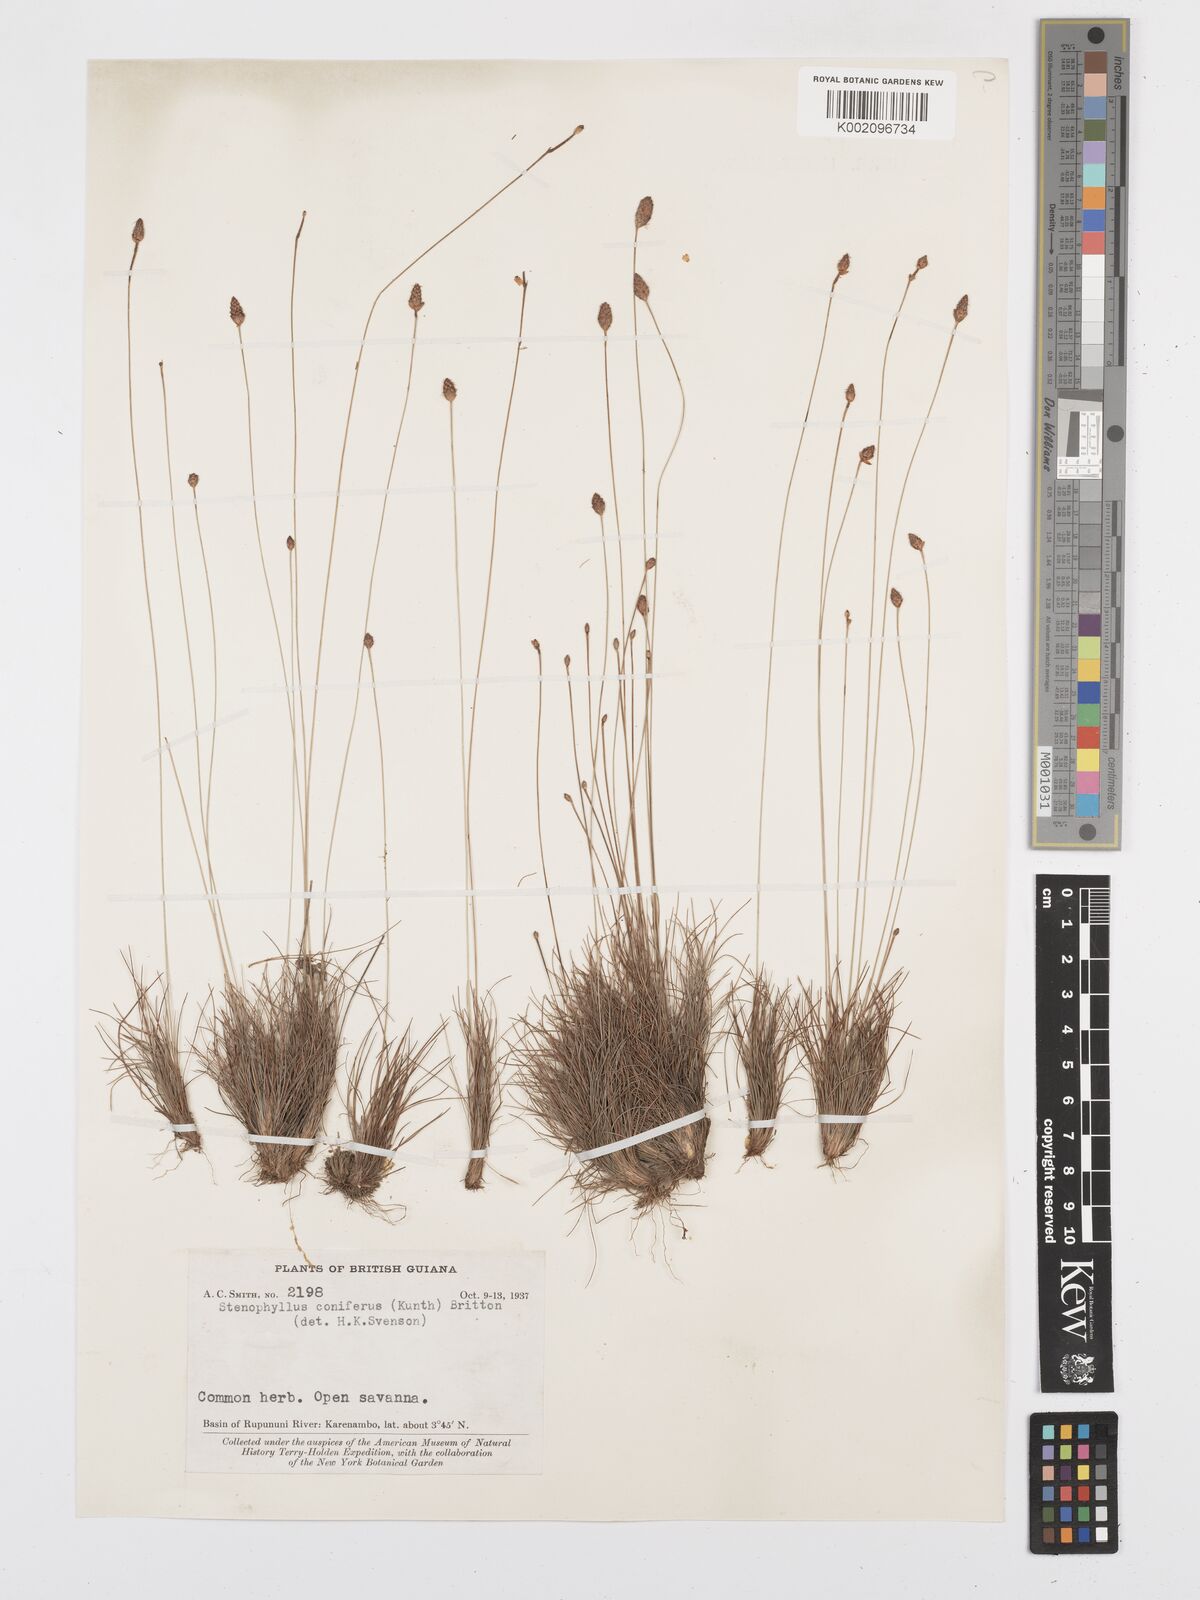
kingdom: Plantae
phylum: Tracheophyta
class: Liliopsida
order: Poales
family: Cyperaceae
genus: Bulbostylis
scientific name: Bulbostylis conifera
